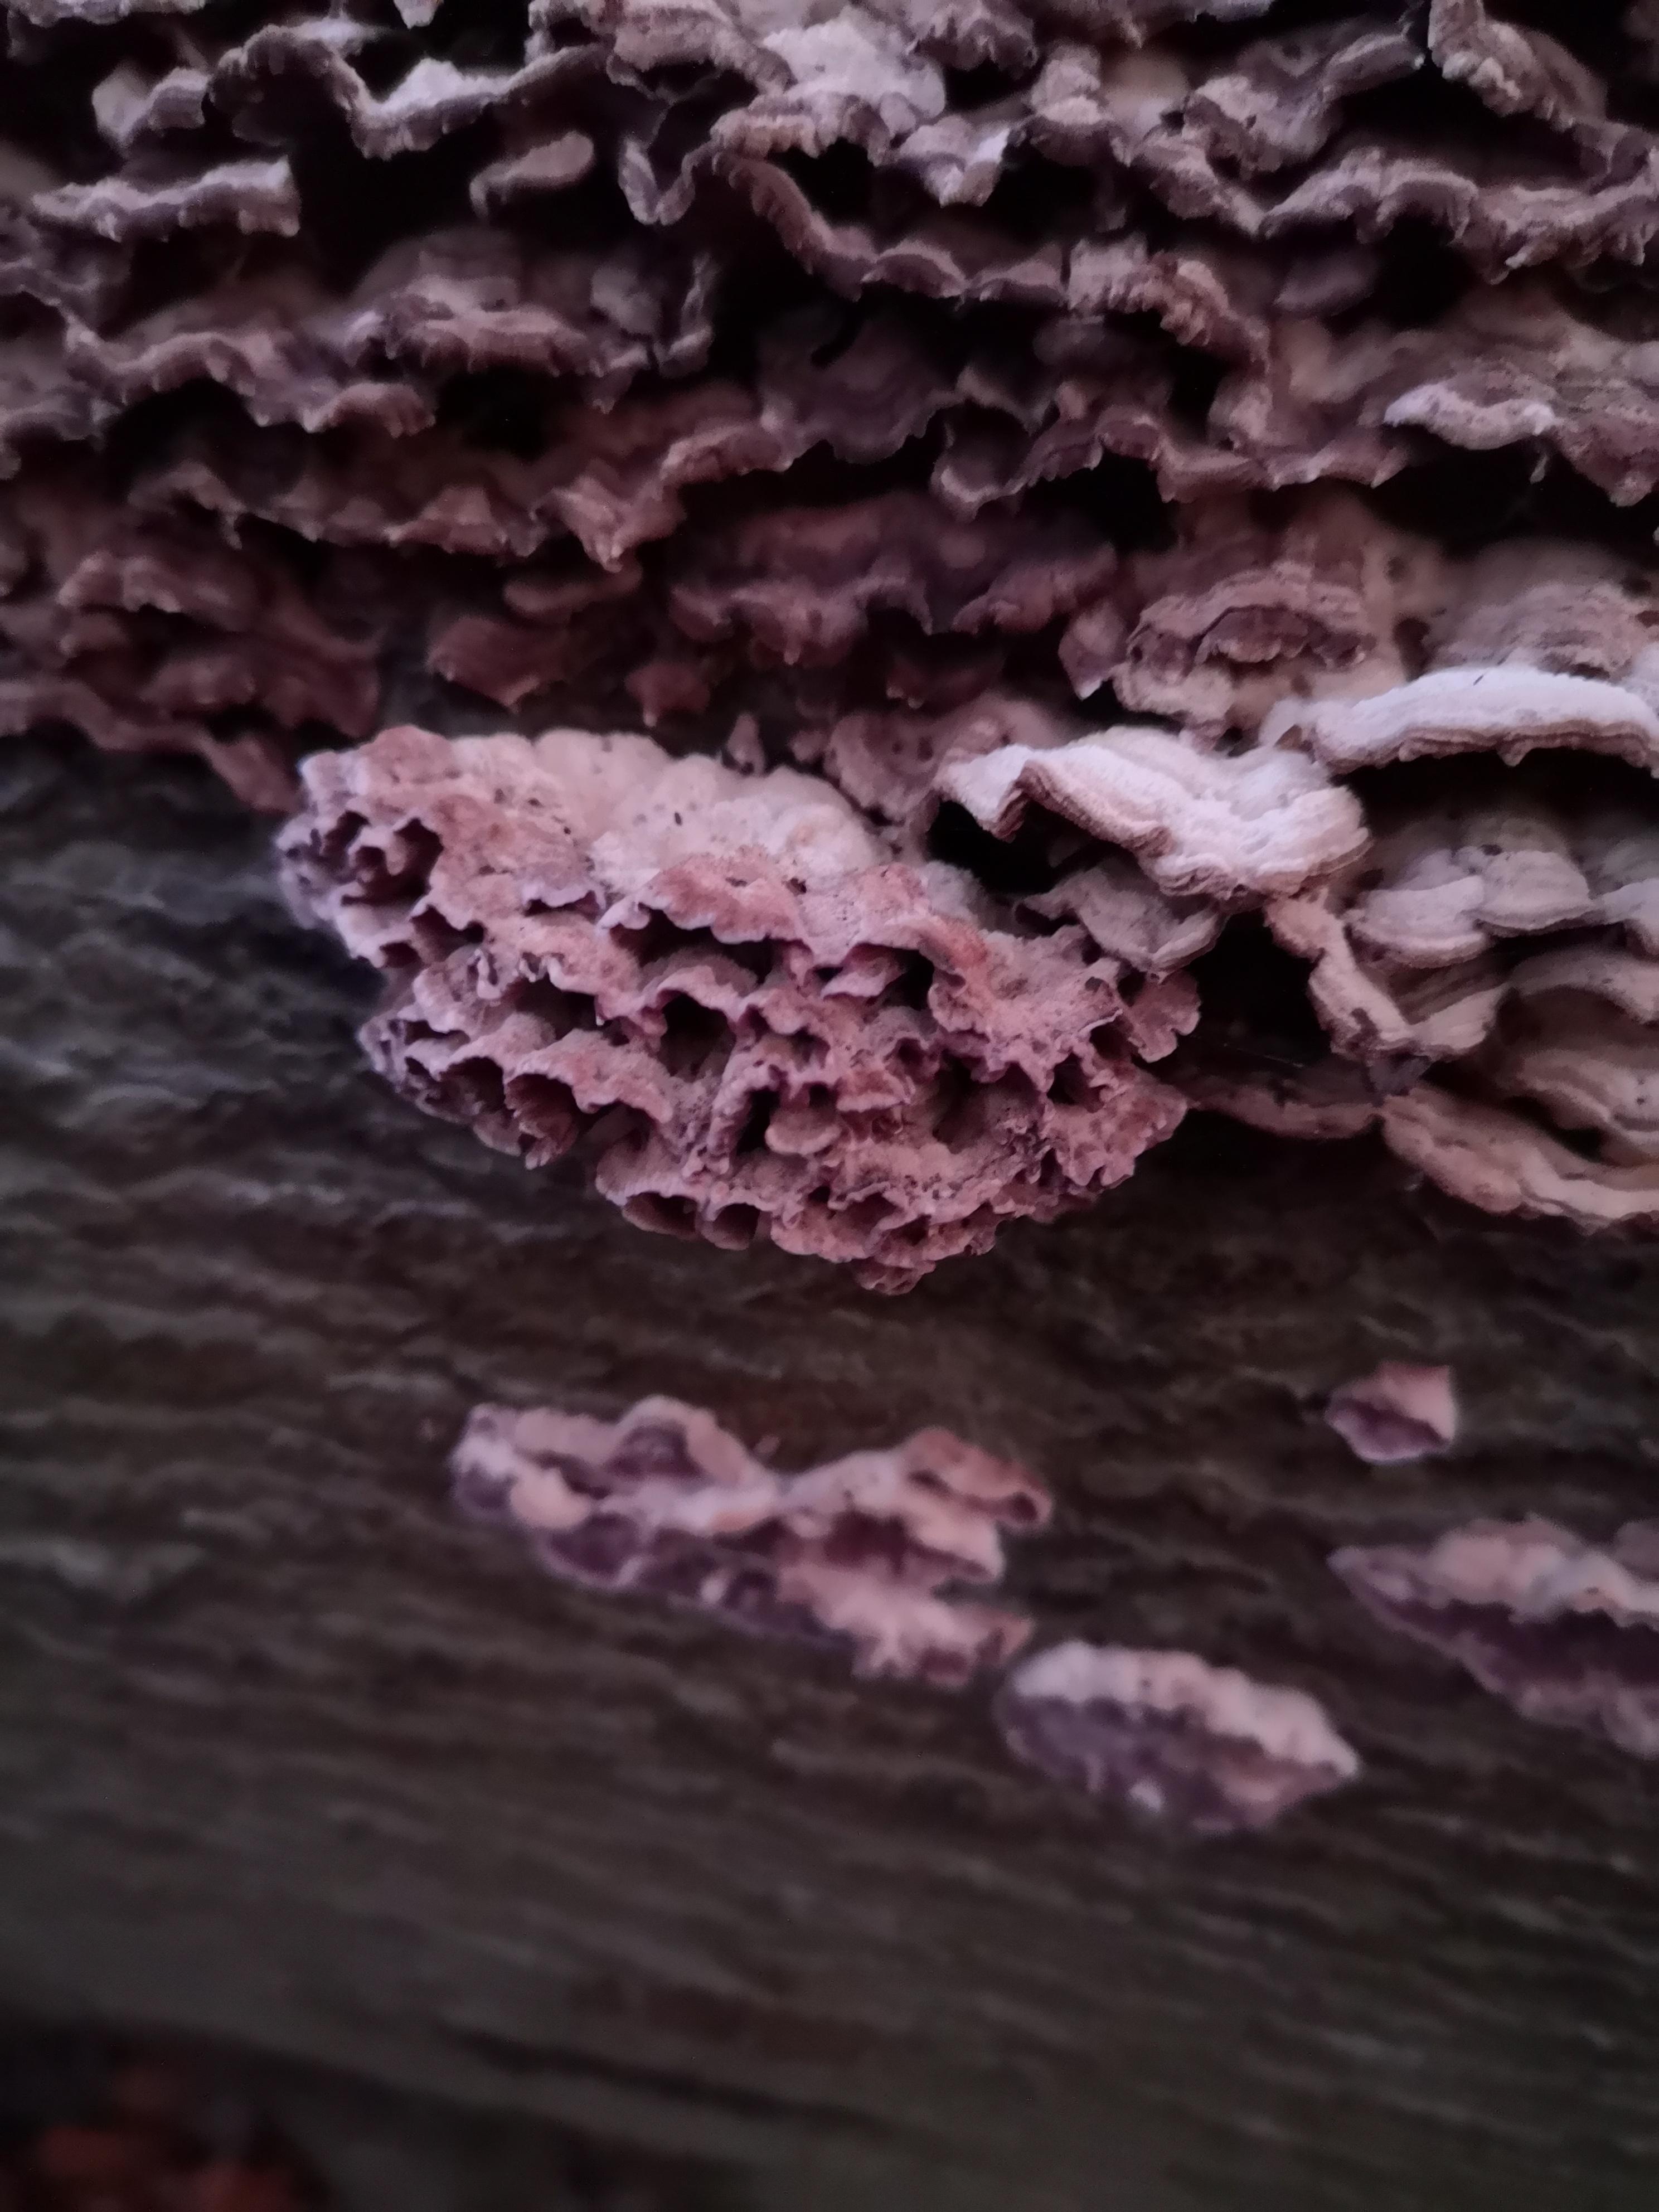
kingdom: Fungi
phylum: Basidiomycota
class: Agaricomycetes
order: Agaricales
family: Cyphellaceae
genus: Chondrostereum
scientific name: Chondrostereum purpureum
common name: purpurlædersvamp
